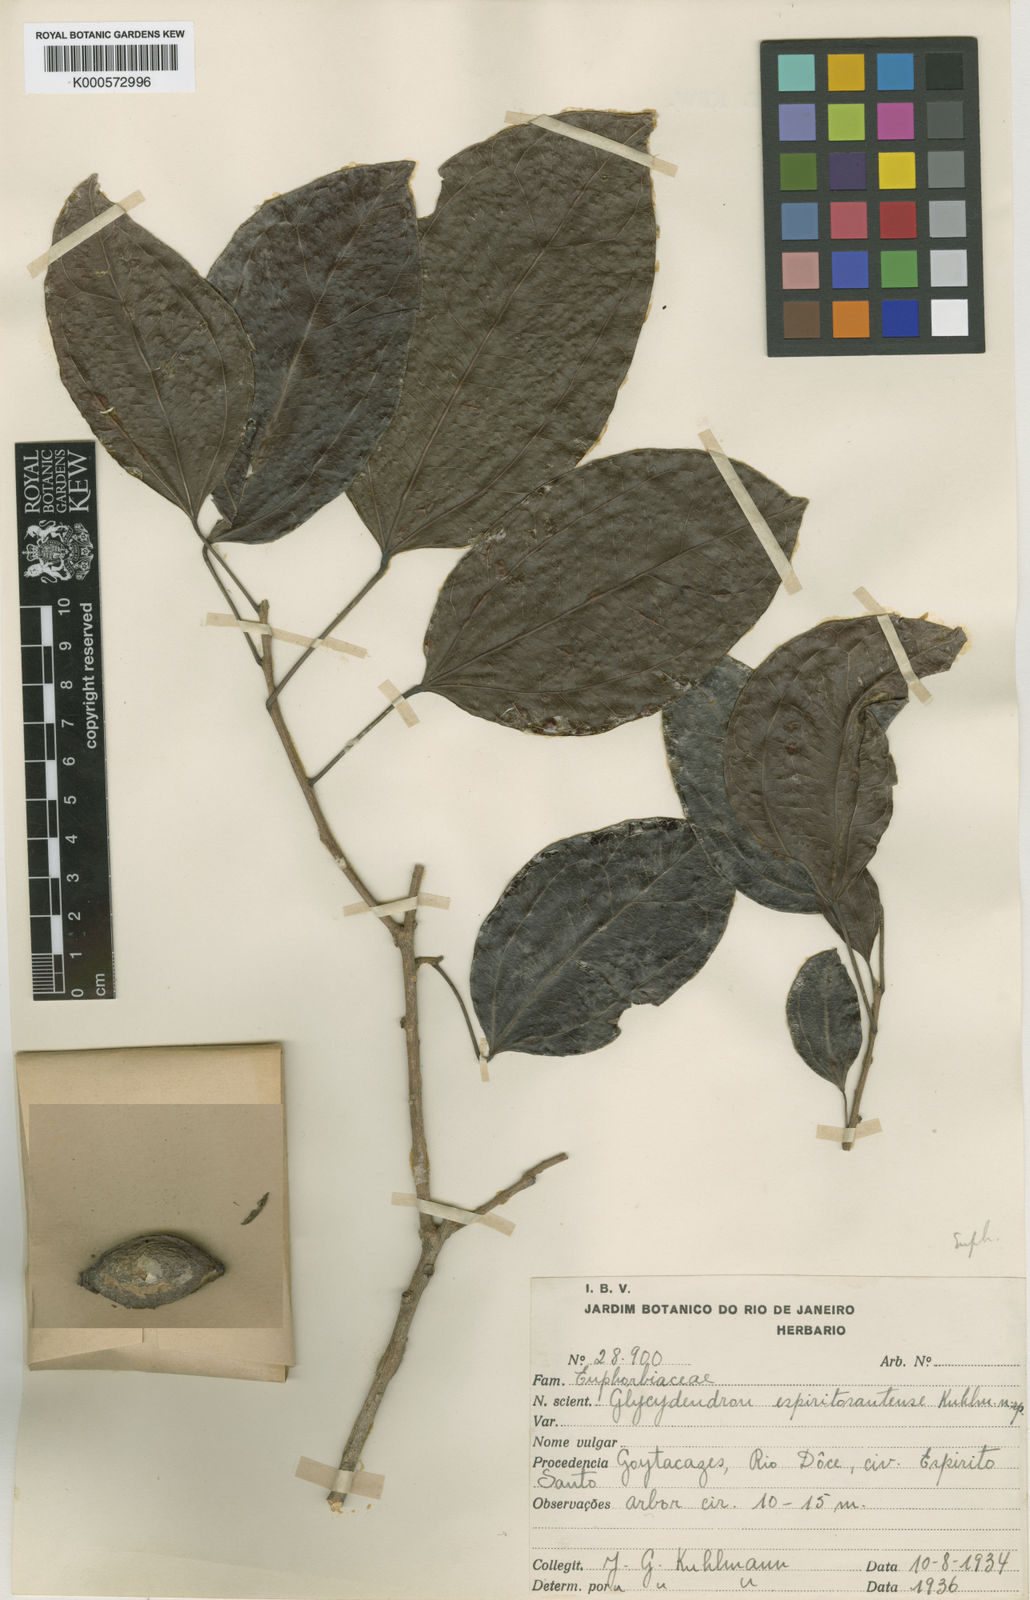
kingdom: Plantae
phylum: Tracheophyta
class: Magnoliopsida
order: Malpighiales
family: Euphorbiaceae
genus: Glycydendron
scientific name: Glycydendron espiritosantense
